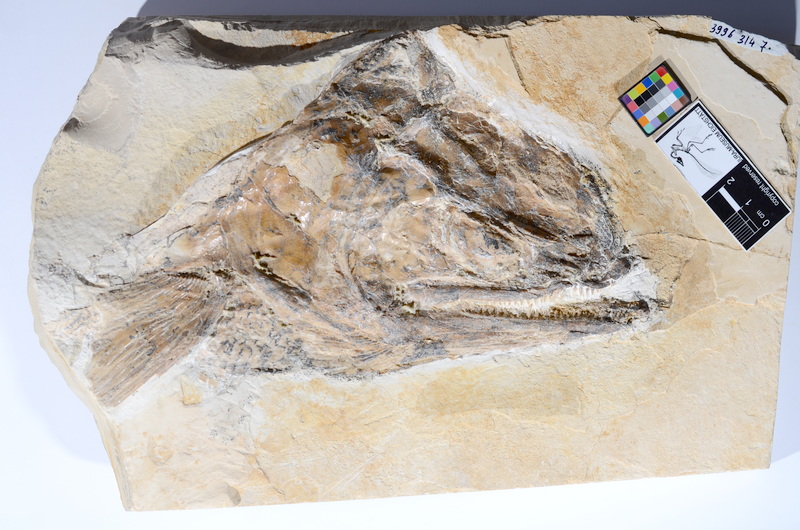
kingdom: Animalia
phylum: Chordata
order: Amiiformes
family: Caturidae
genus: Caturus
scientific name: Caturus
